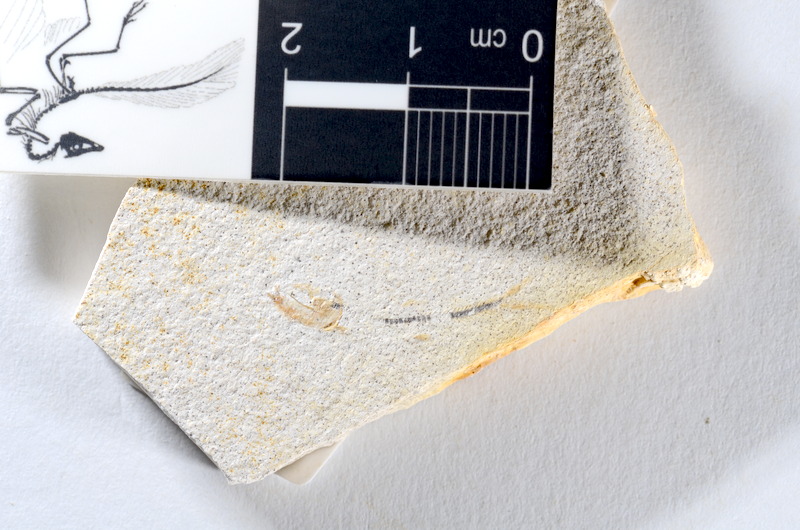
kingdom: Animalia
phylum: Chordata
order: Salmoniformes
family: Orthogonikleithridae
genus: Orthogonikleithrus
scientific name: Orthogonikleithrus hoelli
